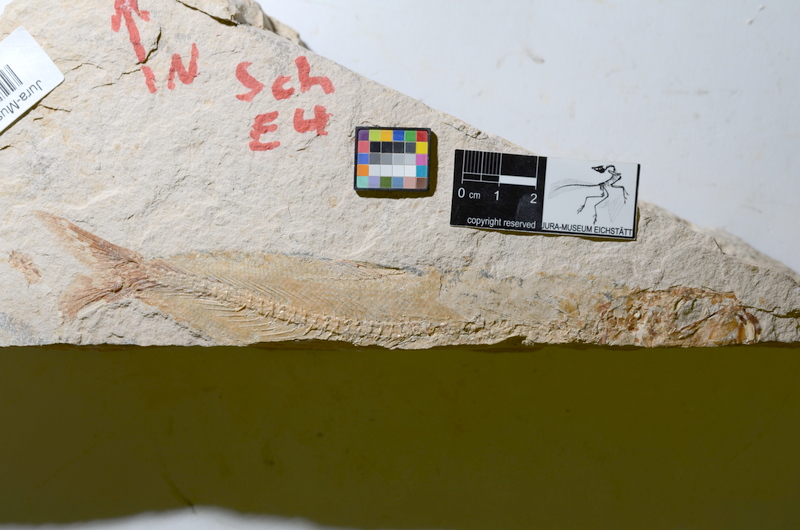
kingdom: Animalia
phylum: Chordata
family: Ascalaboidae
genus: Tharsis
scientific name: Tharsis dubius
